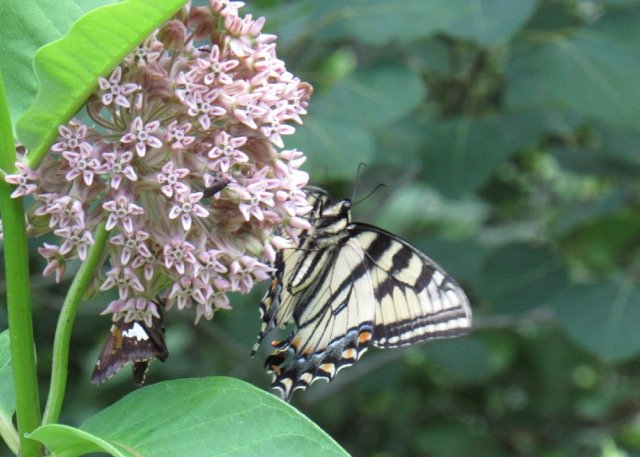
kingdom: Animalia
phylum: Arthropoda
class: Insecta
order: Lepidoptera
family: Papilionidae
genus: Pterourus
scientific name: Pterourus canadensis
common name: Canadian Tiger Swallowtail
